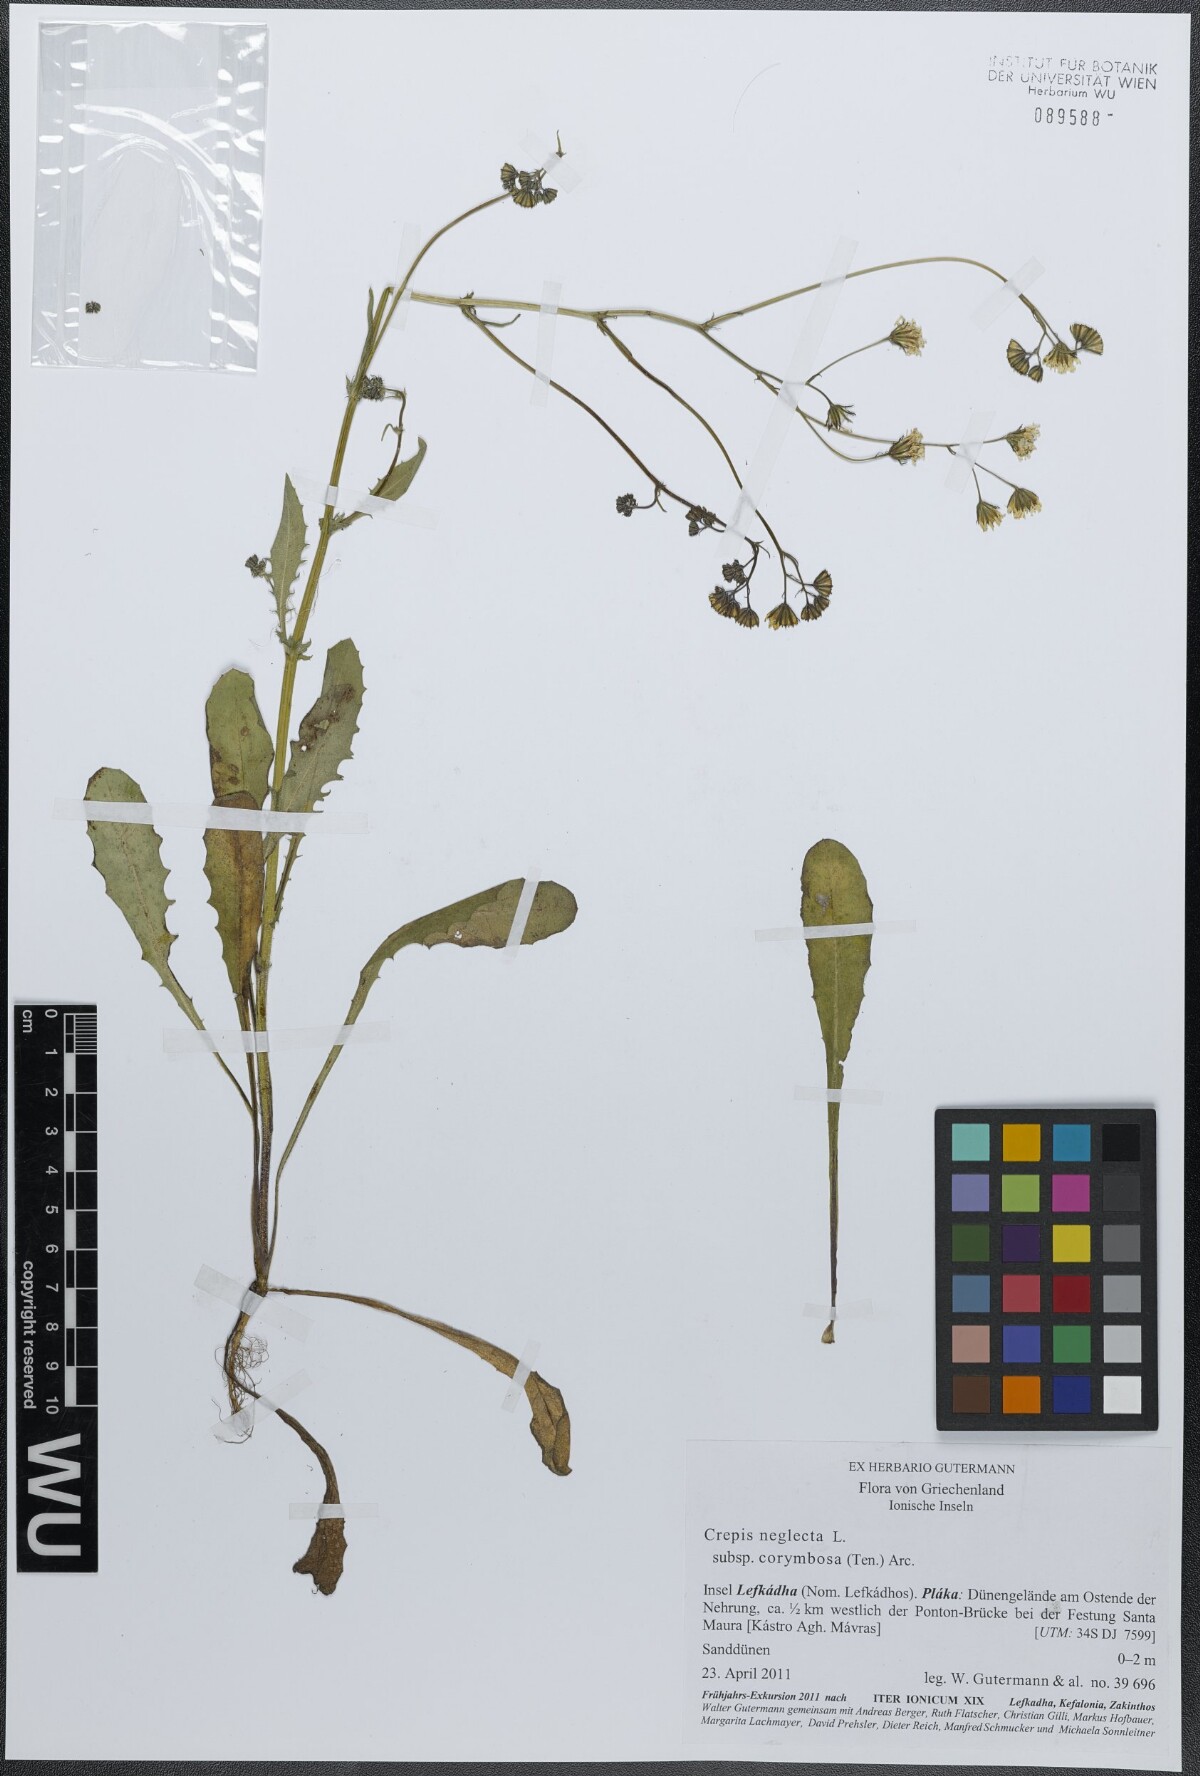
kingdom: Plantae
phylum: Tracheophyta
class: Magnoliopsida
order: Asterales
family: Asteraceae
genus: Crepis
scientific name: Crepis neglecta
